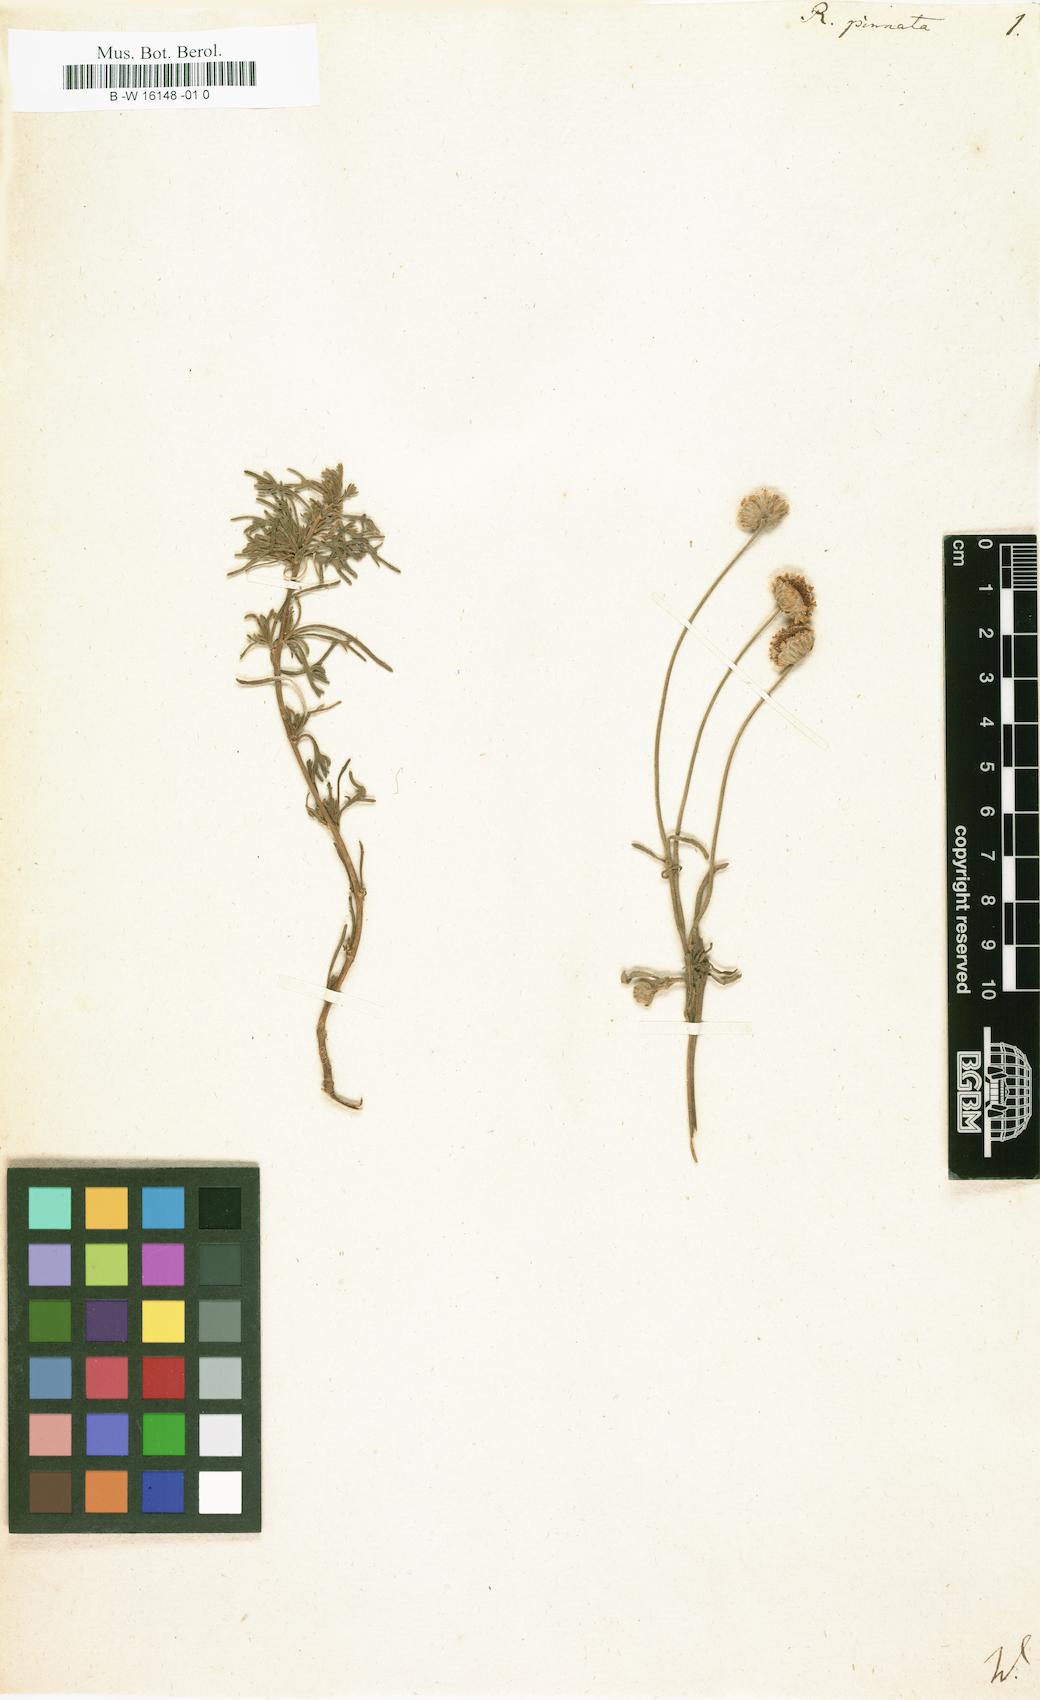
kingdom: Plantae
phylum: Tracheophyta
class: Magnoliopsida
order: Asterales
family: Asteraceae
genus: Ursinia
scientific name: Ursinia pinnata
